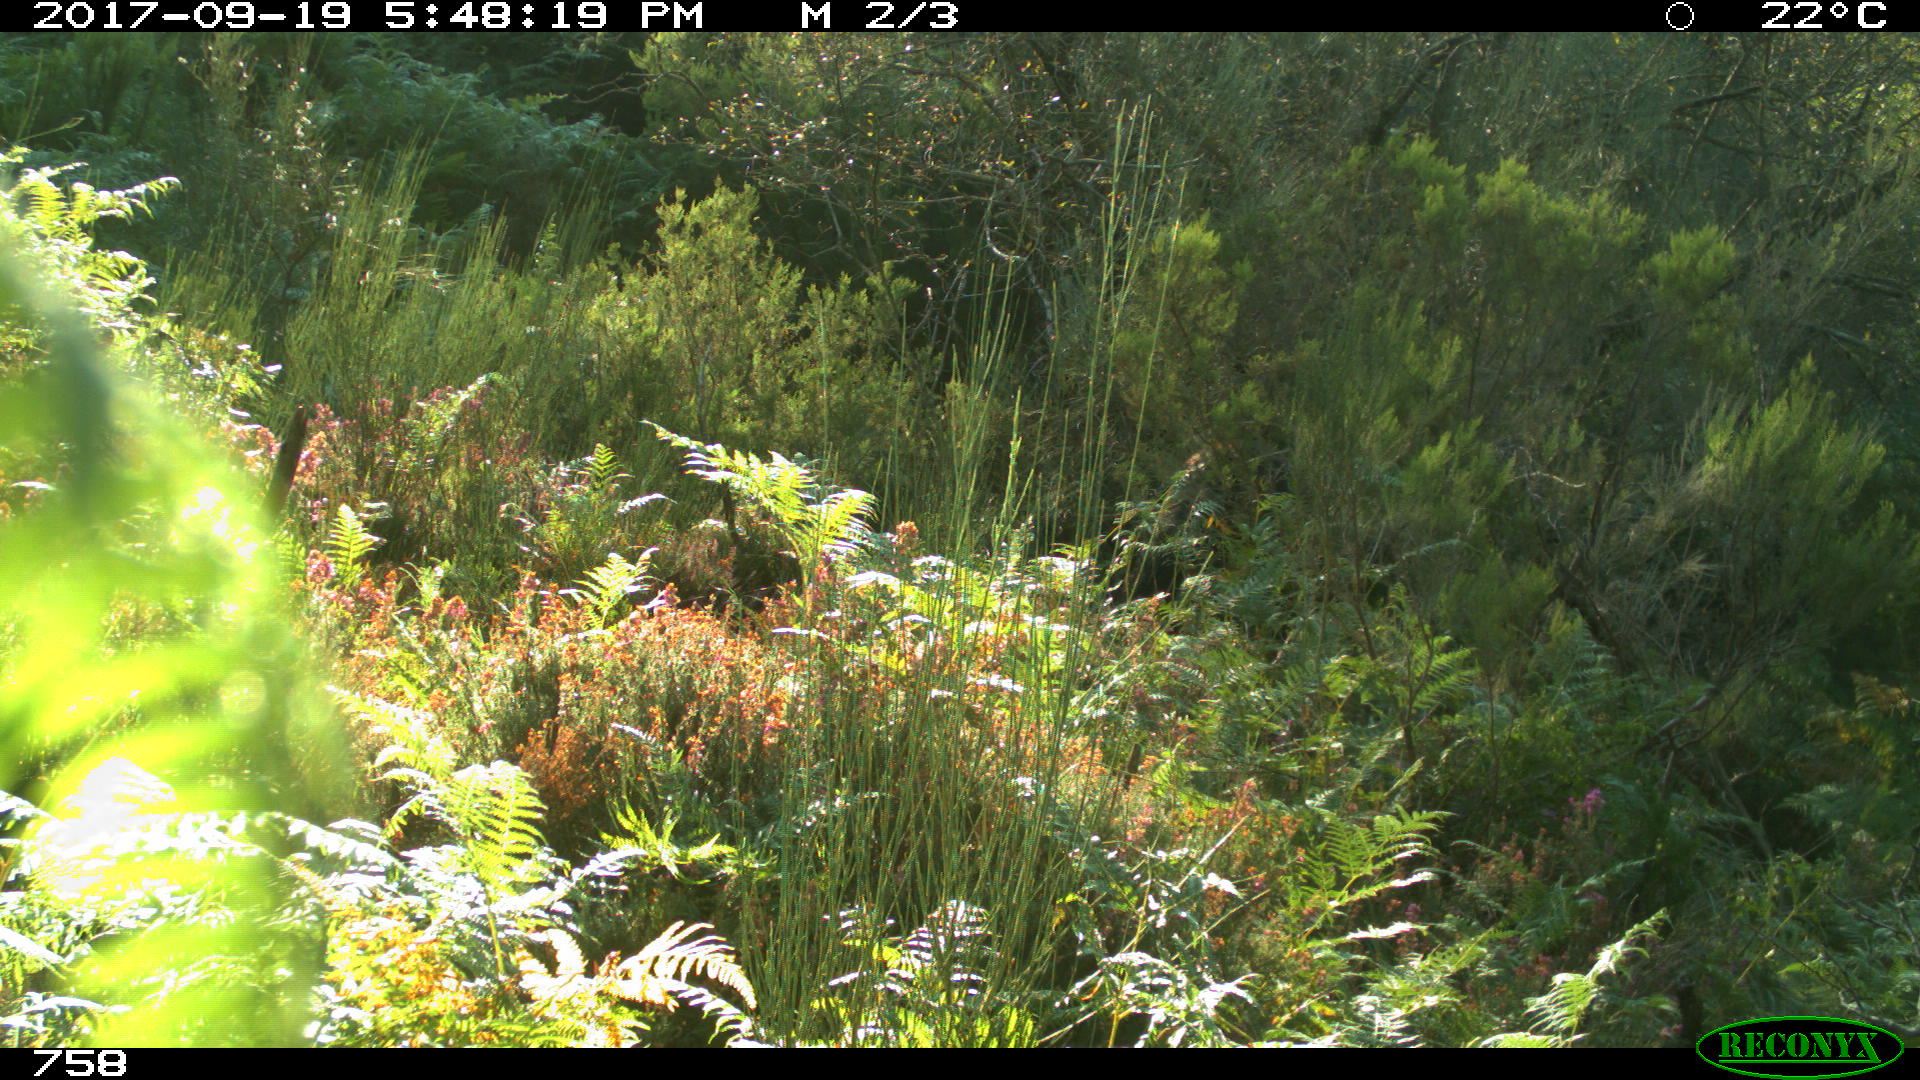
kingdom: Animalia
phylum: Chordata
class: Mammalia
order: Perissodactyla
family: Equidae
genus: Equus
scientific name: Equus caballus
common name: Horse
